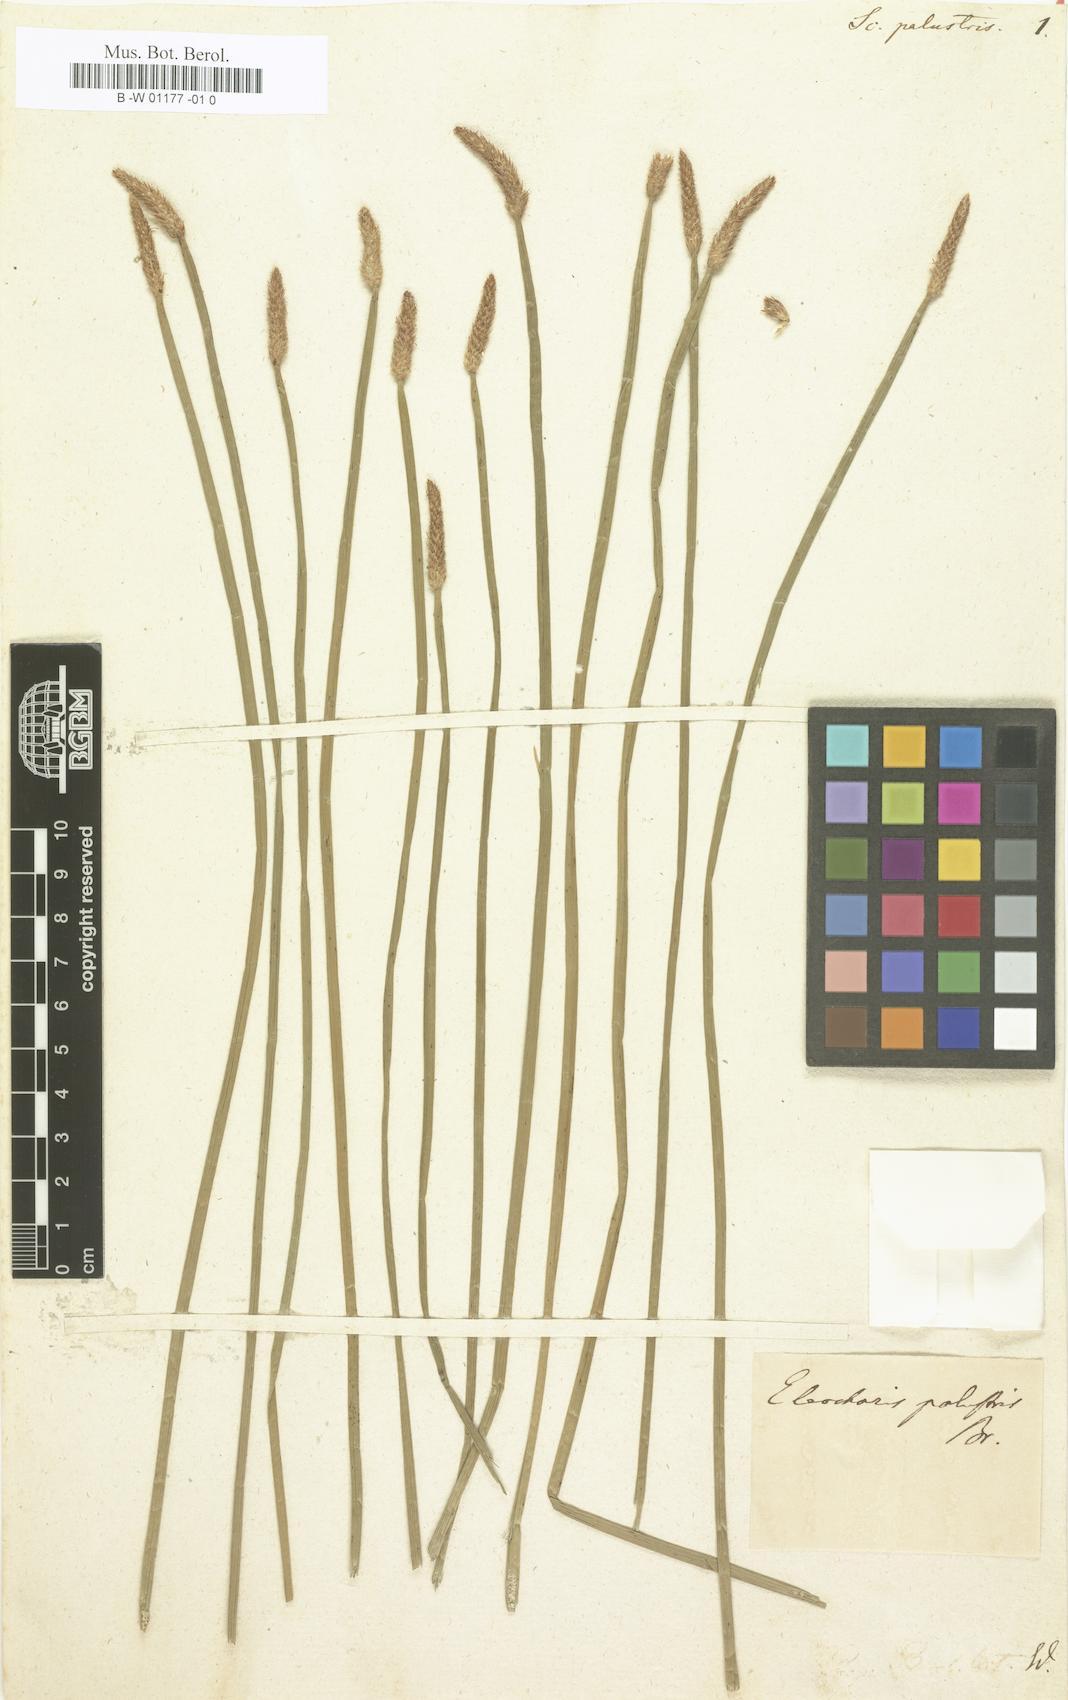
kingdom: Plantae
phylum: Tracheophyta
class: Liliopsida
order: Poales
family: Cyperaceae
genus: Eleocharis
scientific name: Eleocharis palustris
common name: Common spike-rush
